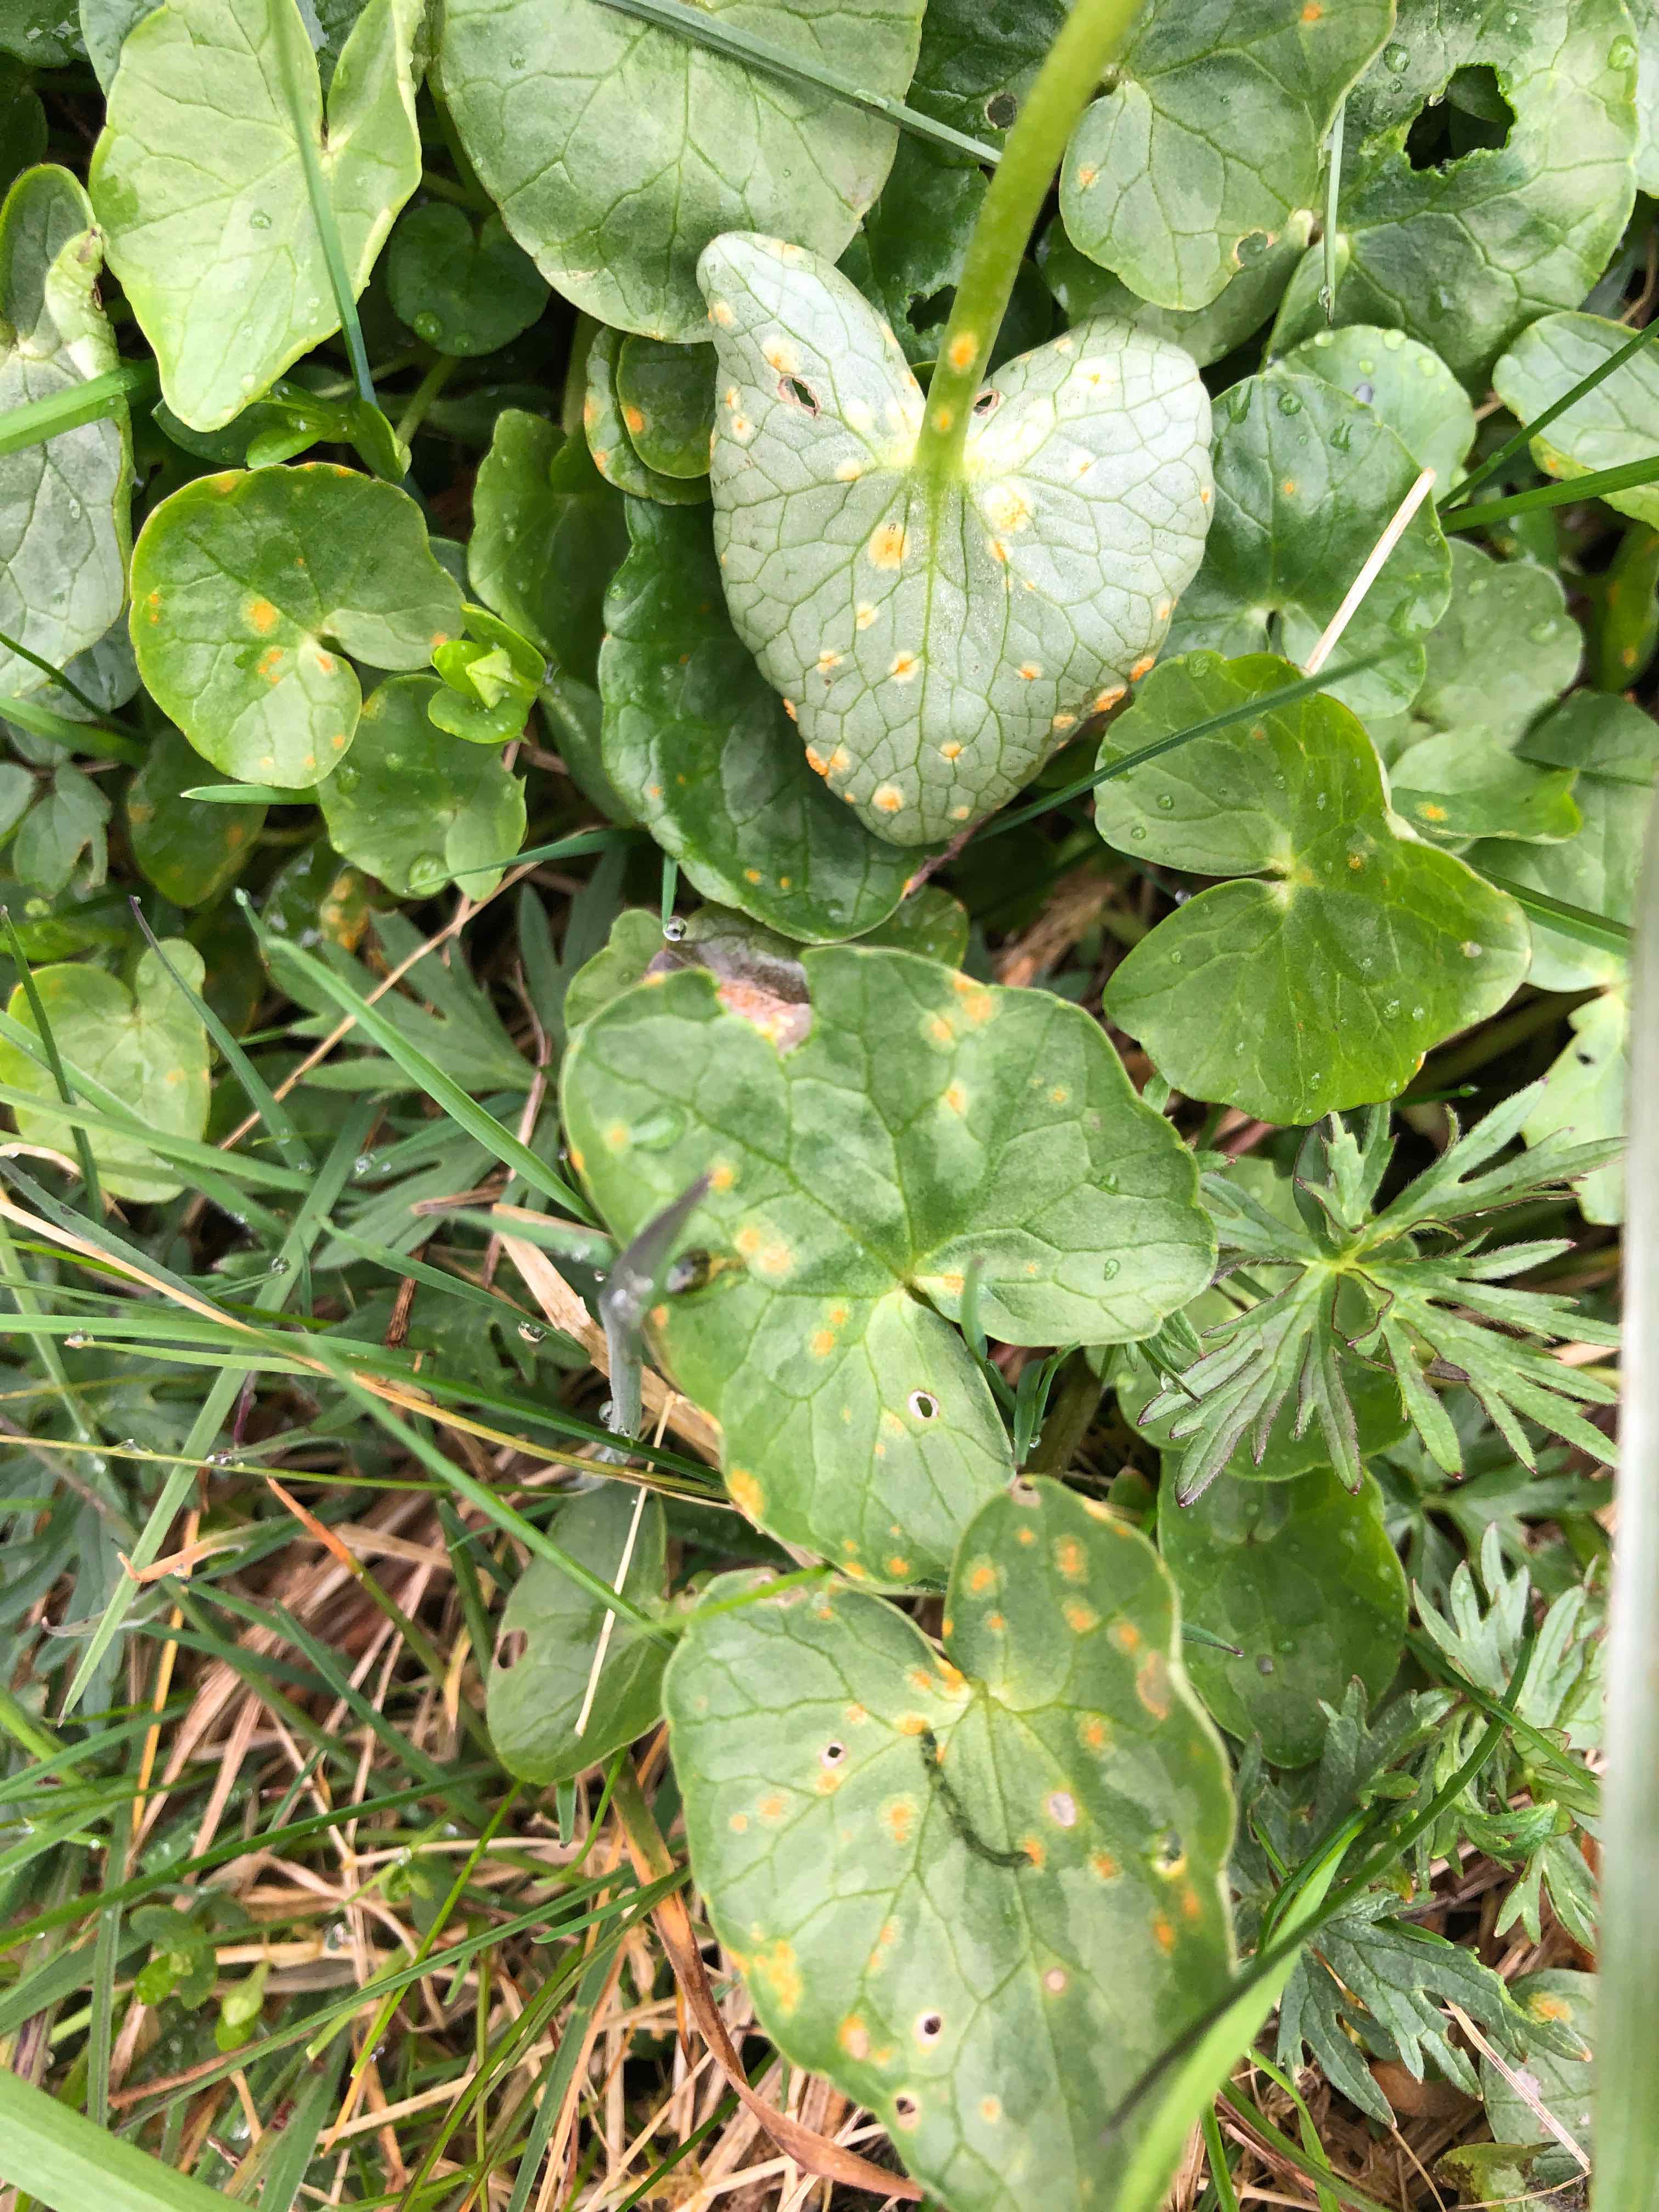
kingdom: Fungi
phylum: Basidiomycota
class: Pucciniomycetes
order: Pucciniales
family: Pucciniaceae
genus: Uromyces
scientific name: Uromyces dactylidis
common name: ranunkel-encellerust
